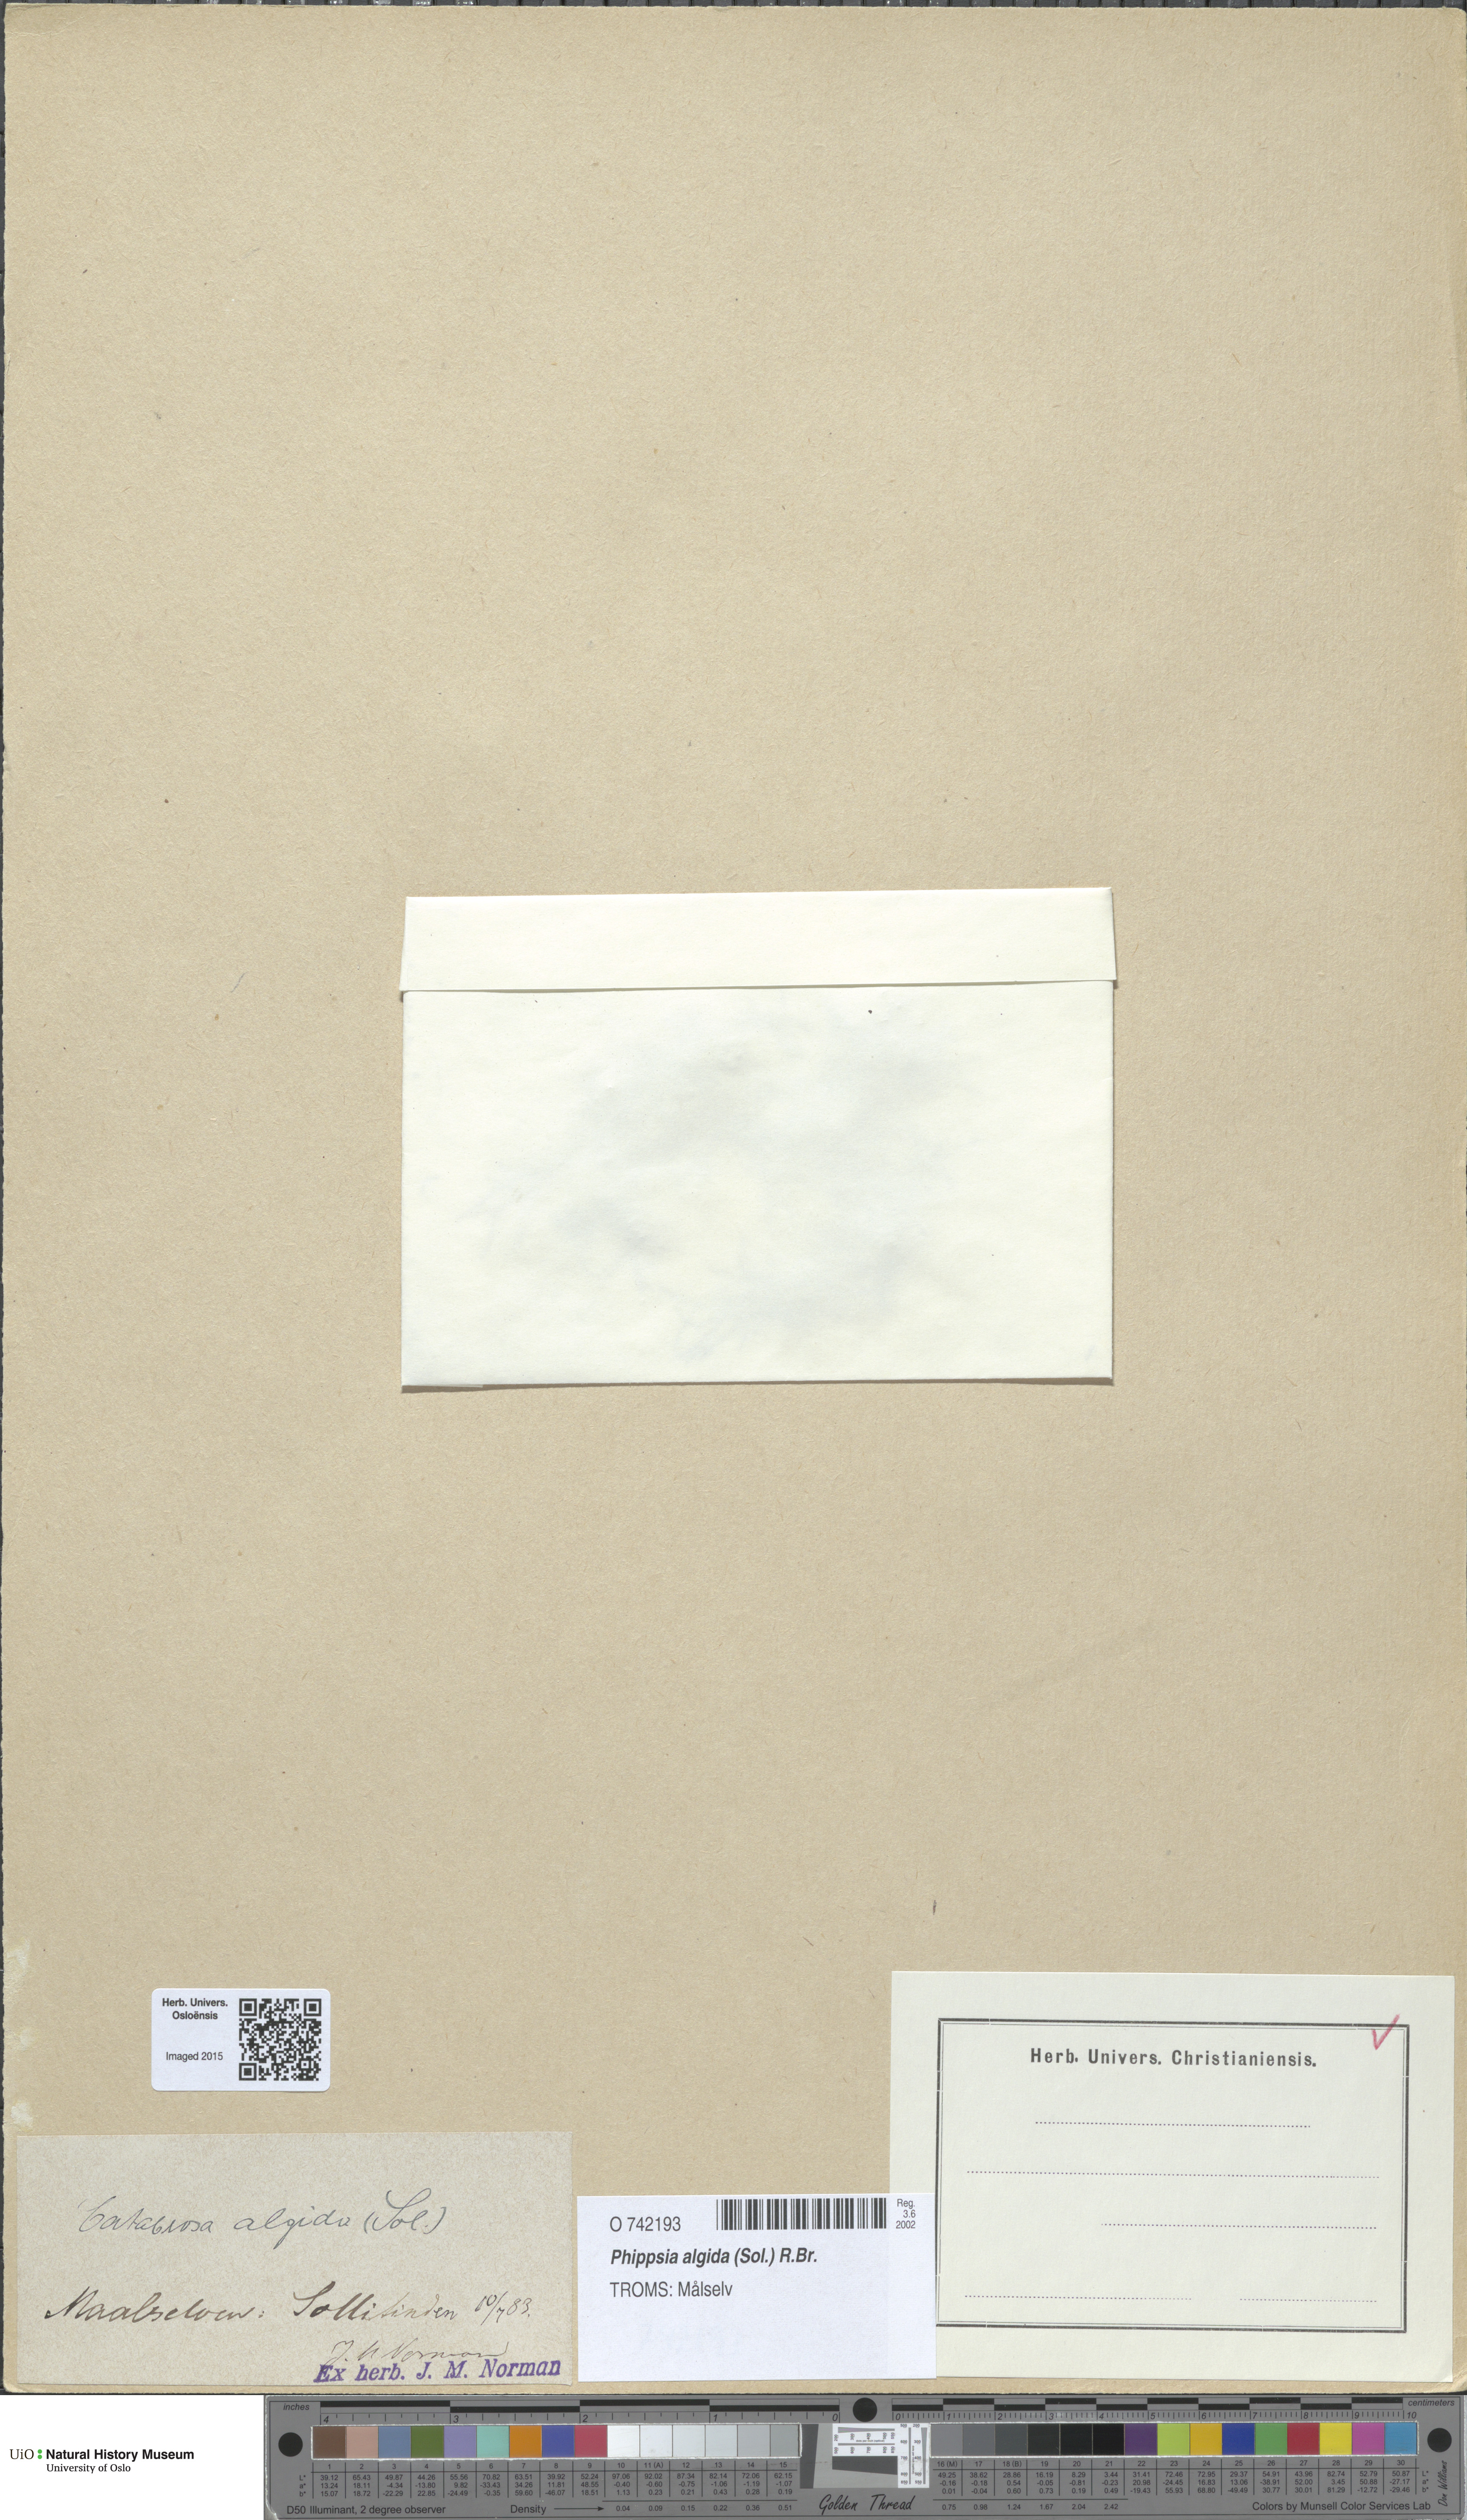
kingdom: Plantae
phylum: Tracheophyta
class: Liliopsida
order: Poales
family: Poaceae
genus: Phippsia
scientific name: Phippsia algida
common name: Ice grass
